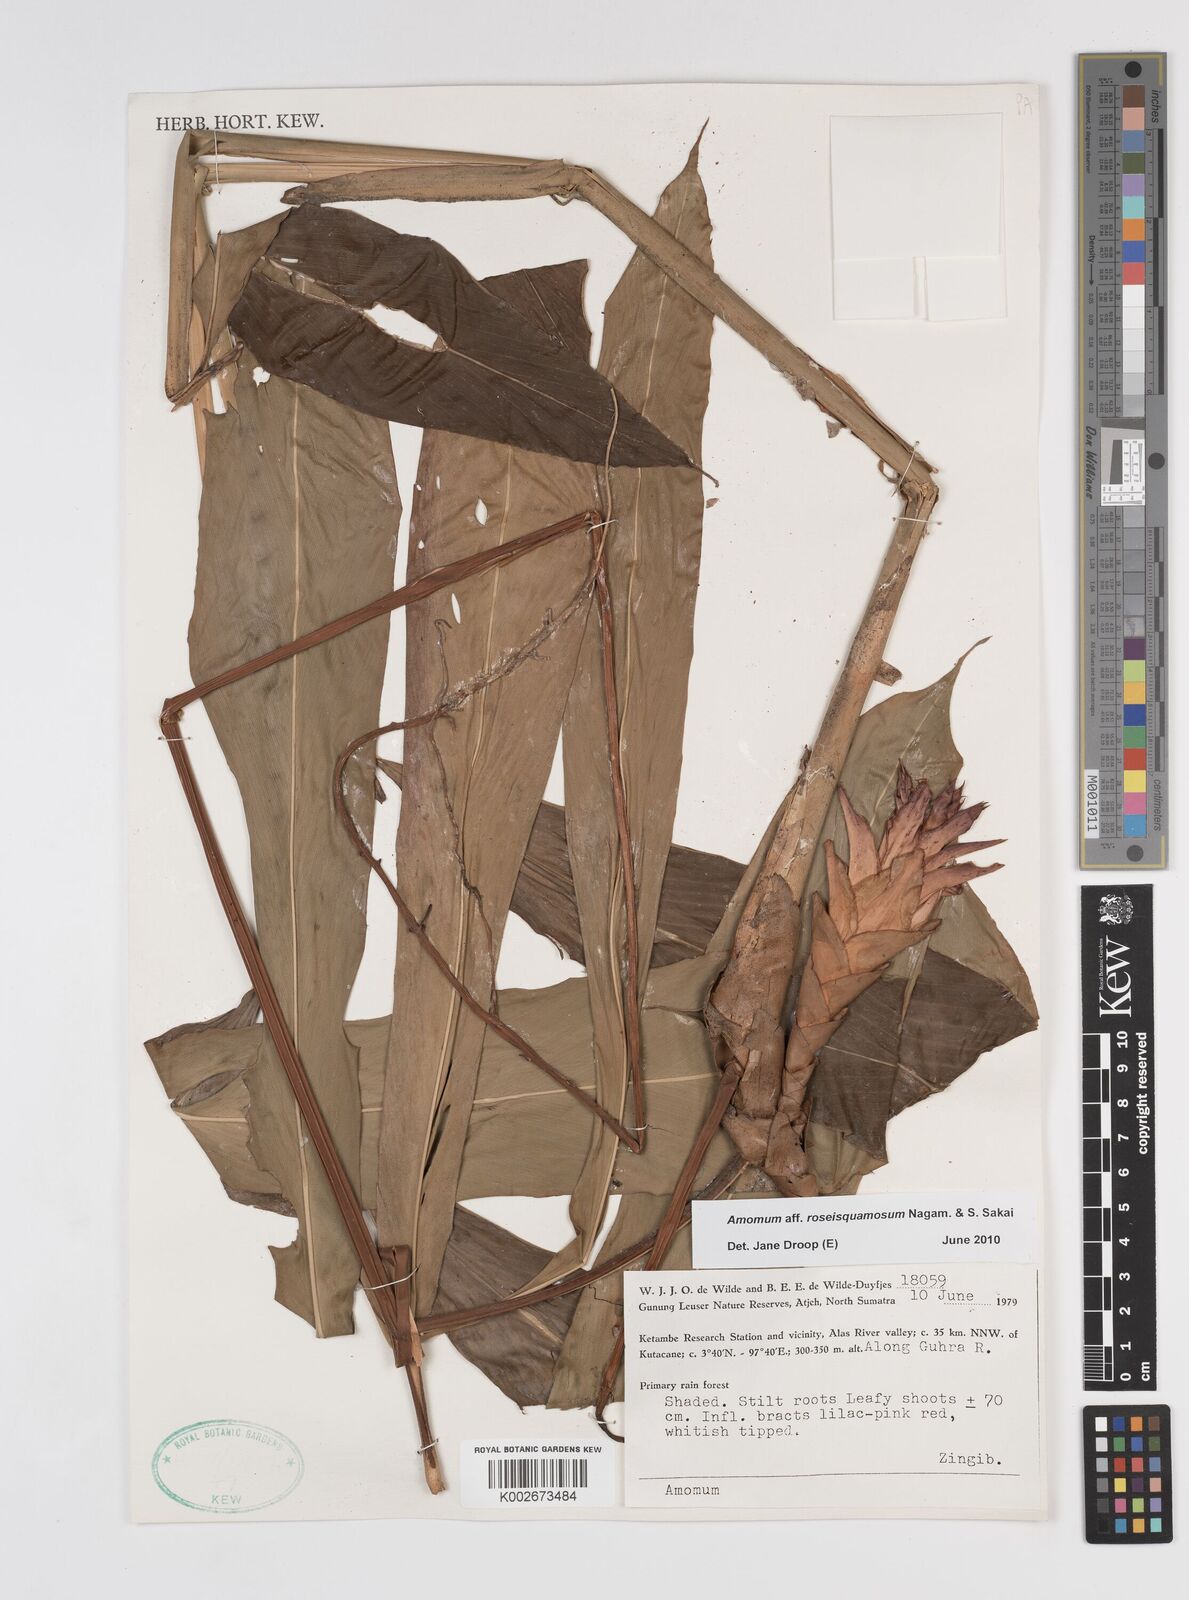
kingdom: Plantae
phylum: Tracheophyta
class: Liliopsida
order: Zingiberales
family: Zingiberaceae
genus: Epiamomum
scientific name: Epiamomum roseisquamosum
